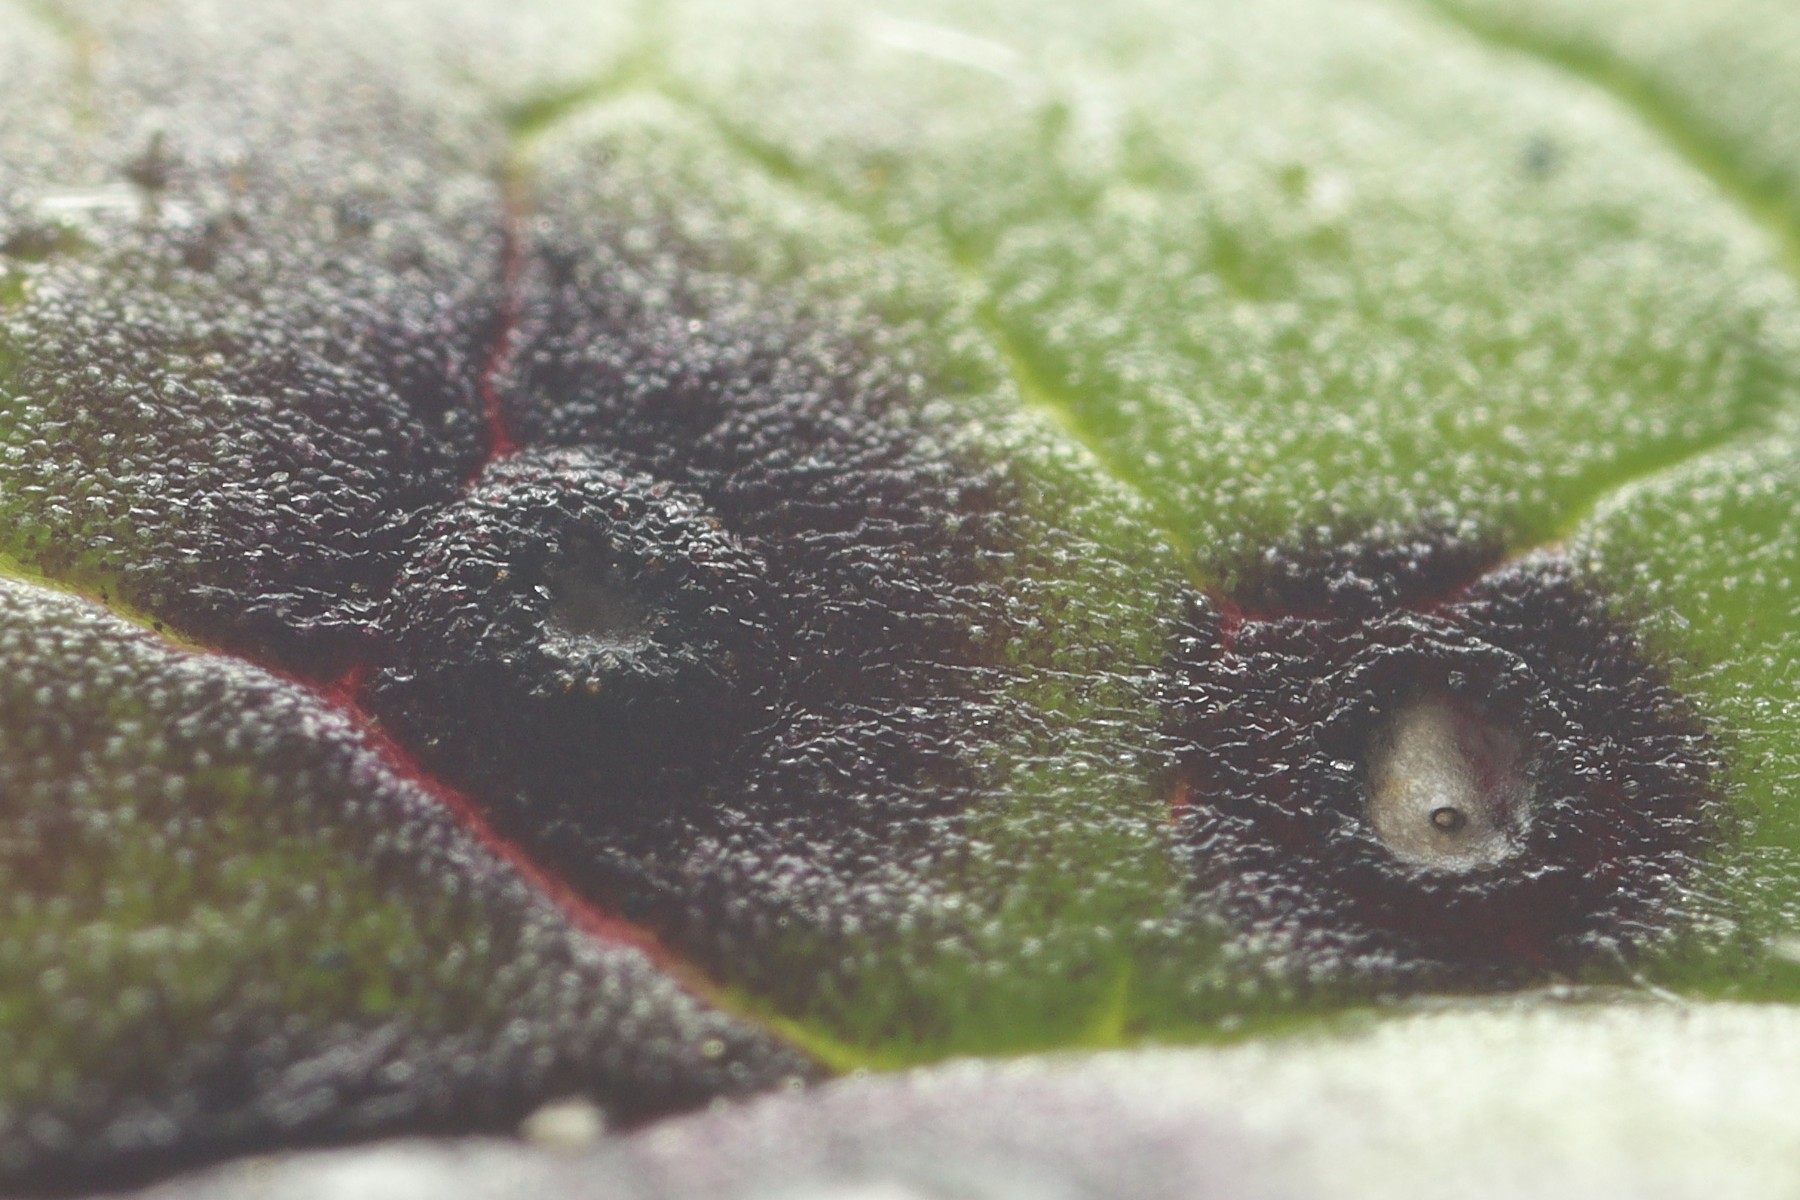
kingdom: Fungi
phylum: Ascomycota
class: Dothideomycetes
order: Mycosphaerellales
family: Mycosphaerellaceae
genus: Septoria
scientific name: Septoria
